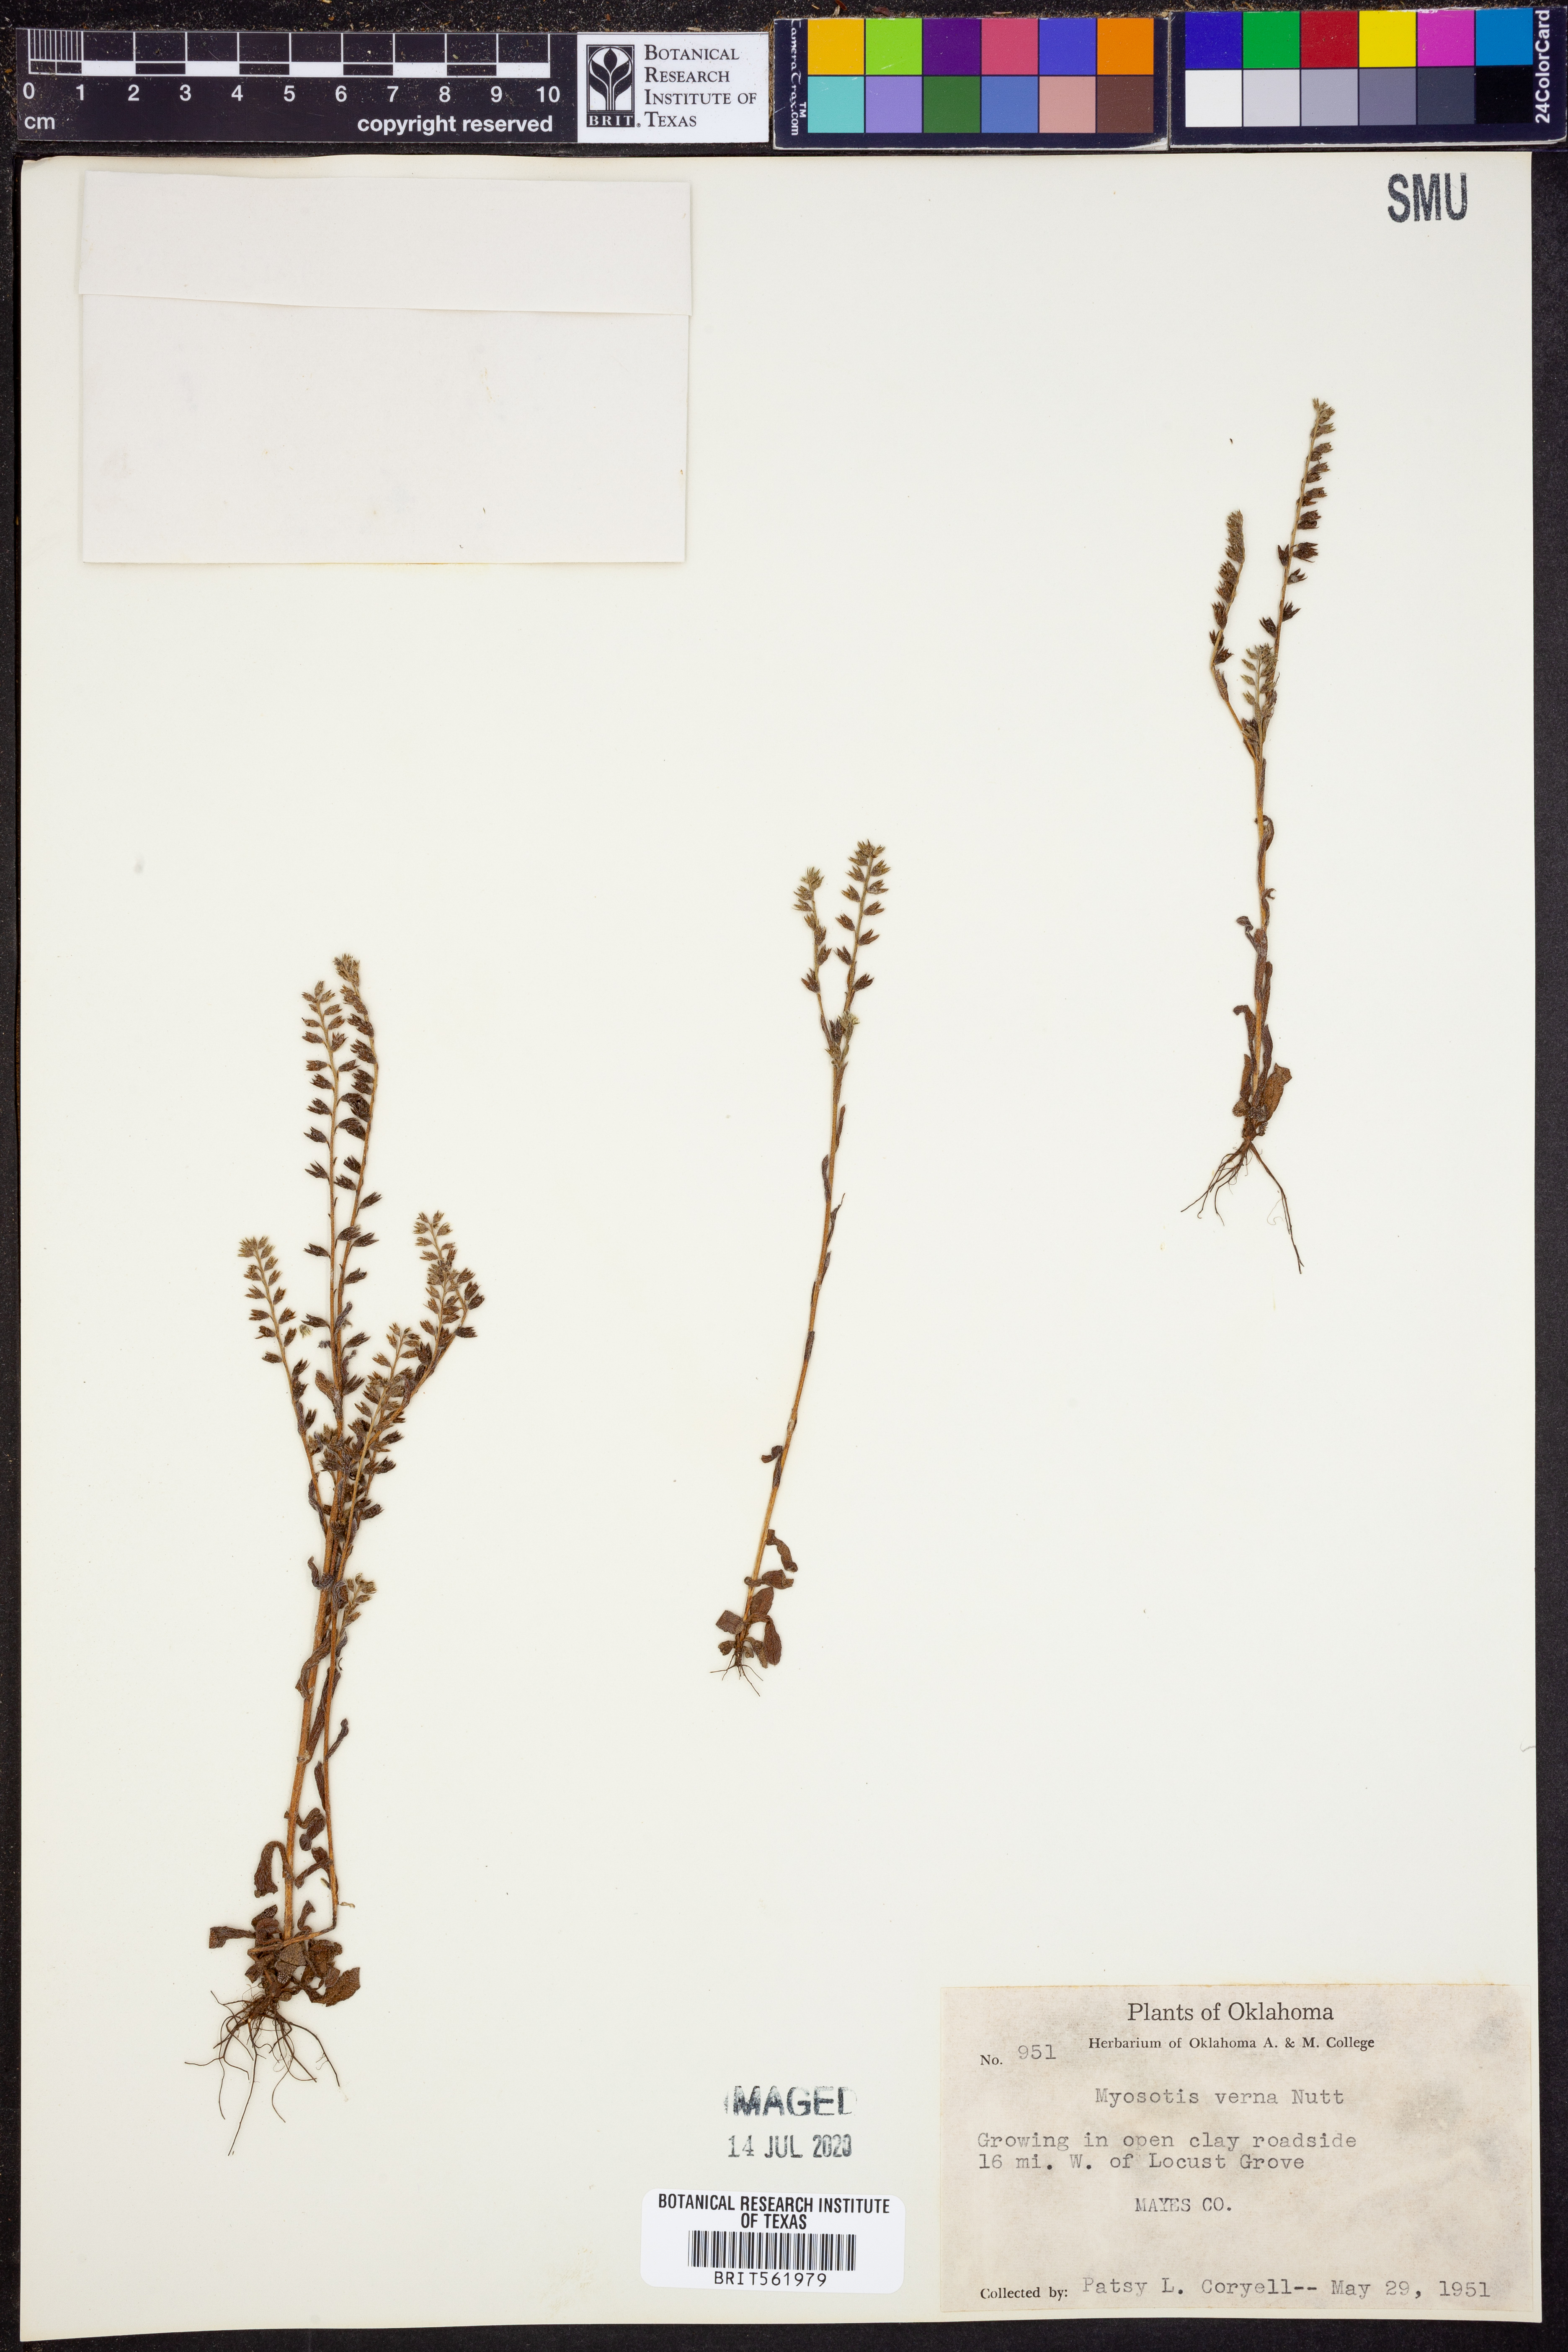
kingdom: Plantae
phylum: Tracheophyta
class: Magnoliopsida
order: Boraginales
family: Boraginaceae
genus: Myosotis
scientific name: Myosotis verna
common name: Early forget-me-not
